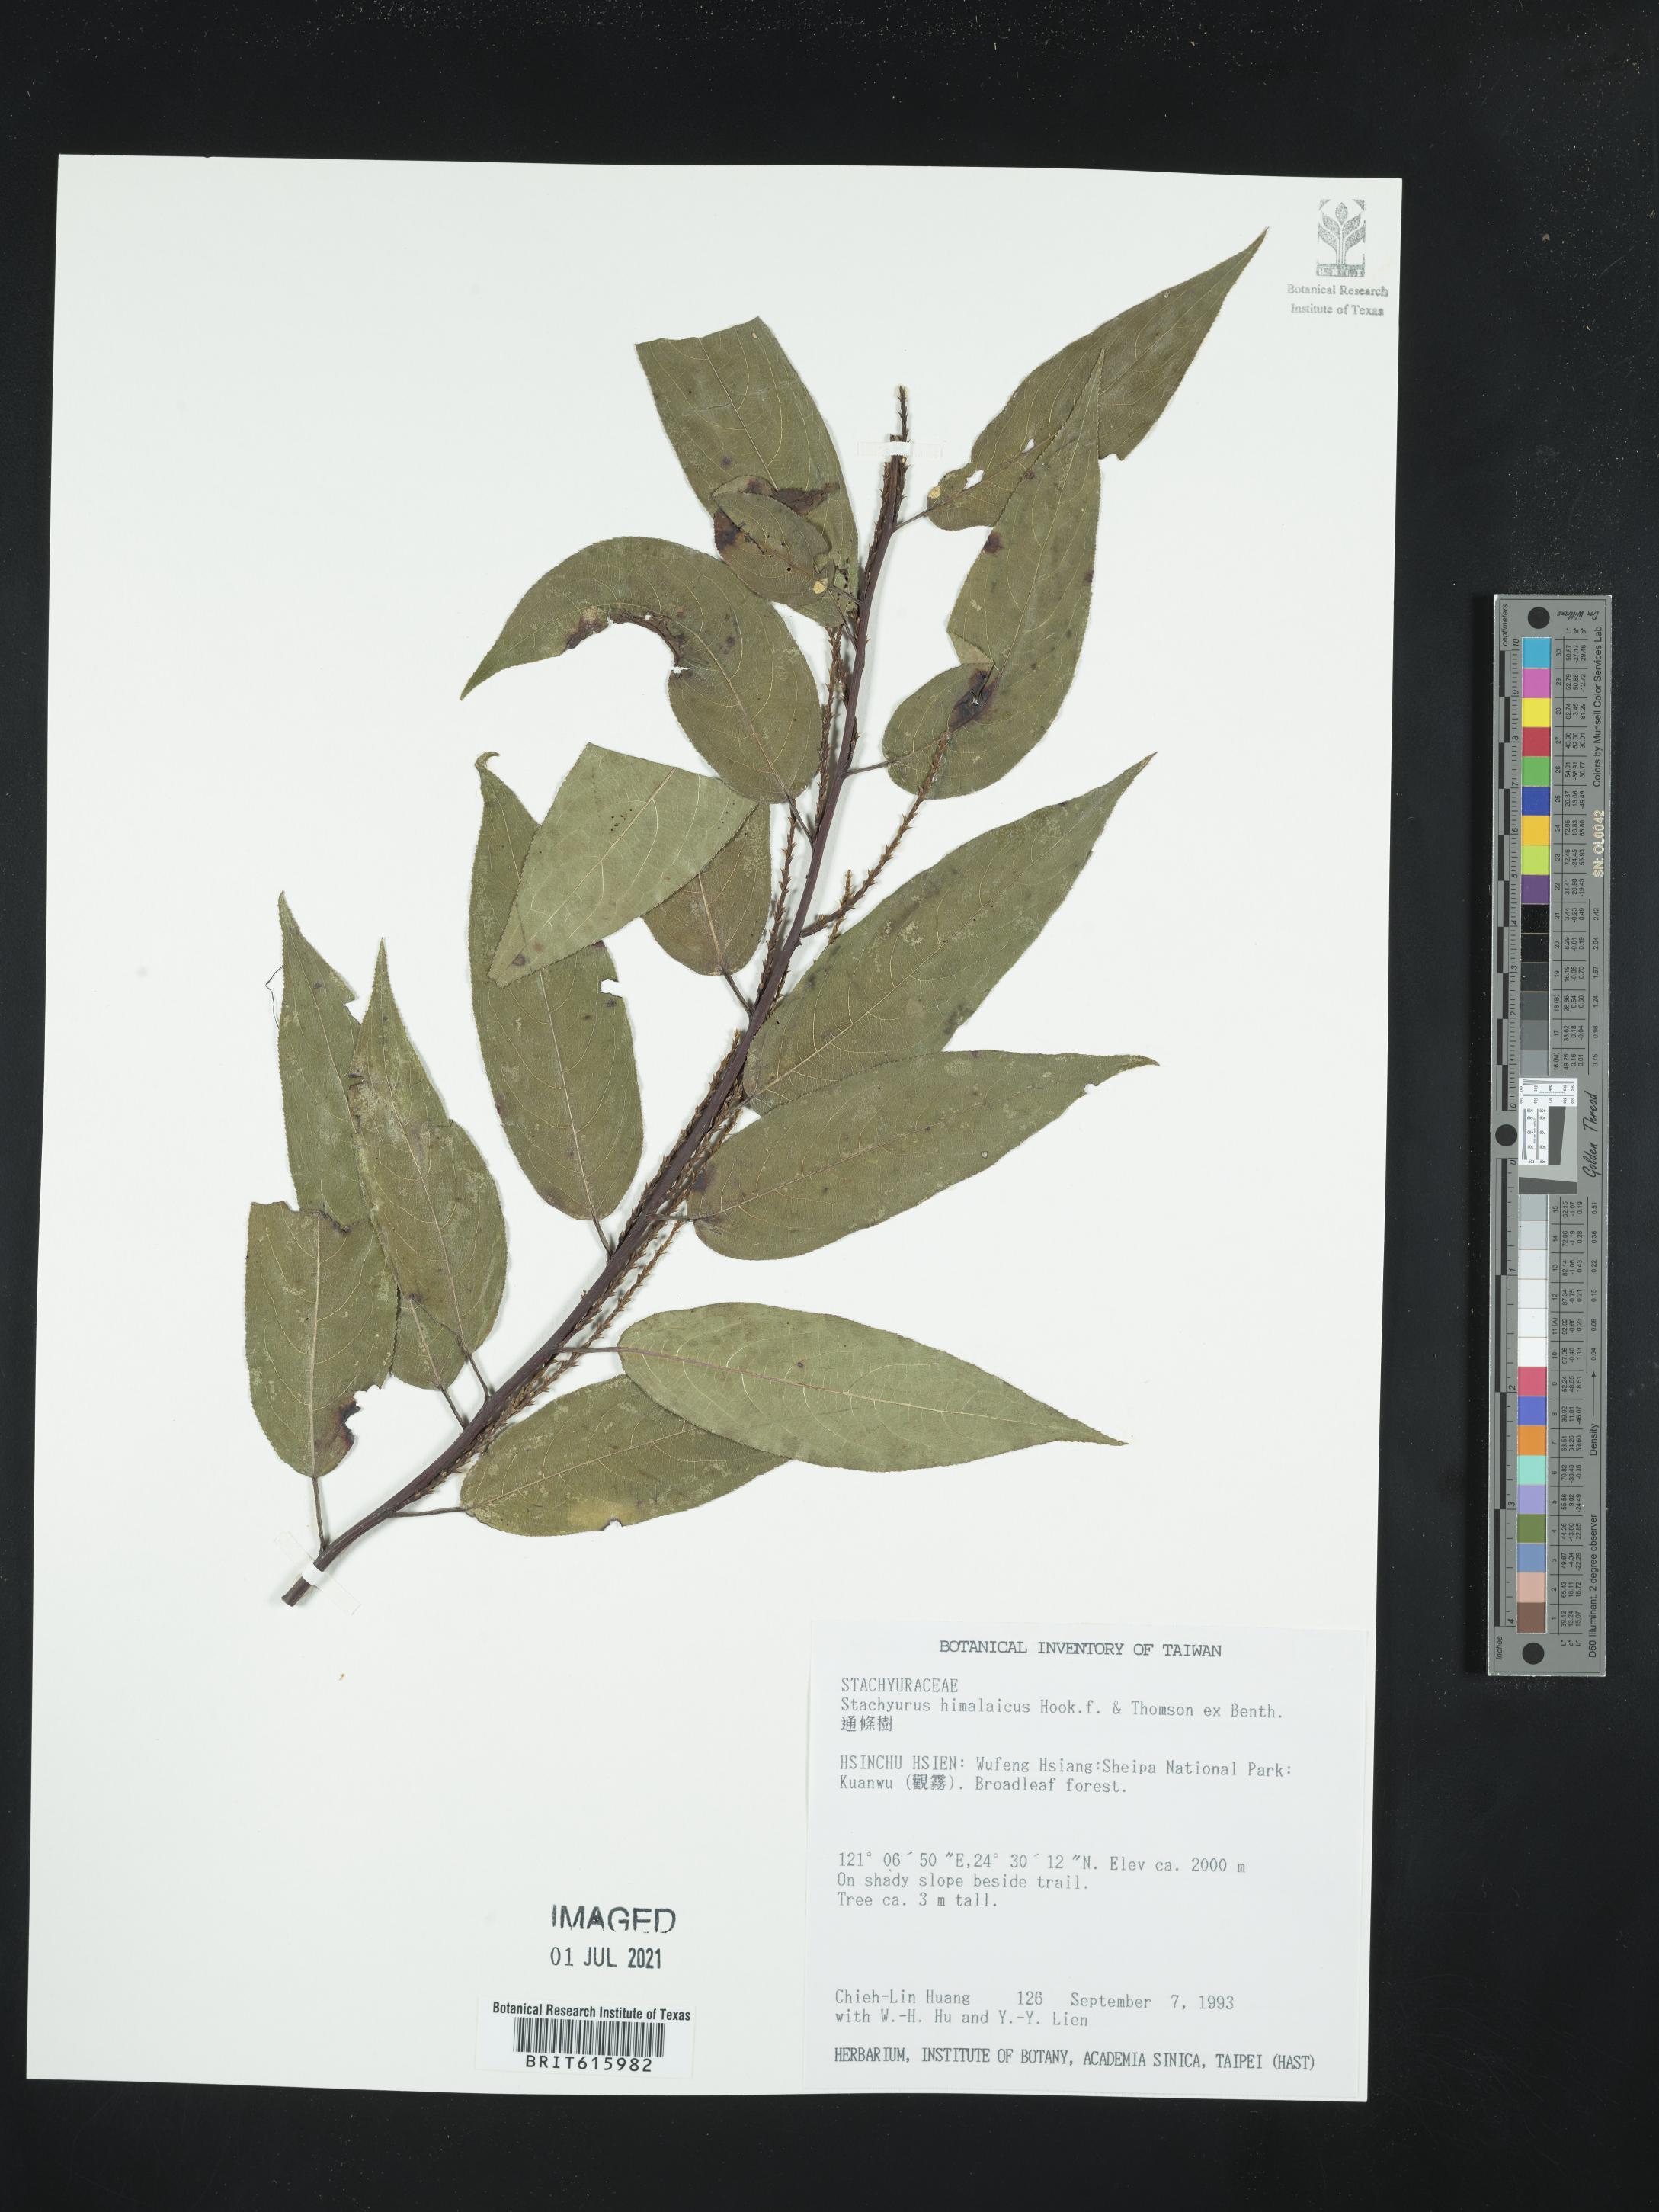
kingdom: Plantae
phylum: Tracheophyta
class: Magnoliopsida
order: Crossosomatales
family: Stachyuraceae
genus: Stachyurus
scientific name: Stachyurus himalaicus
